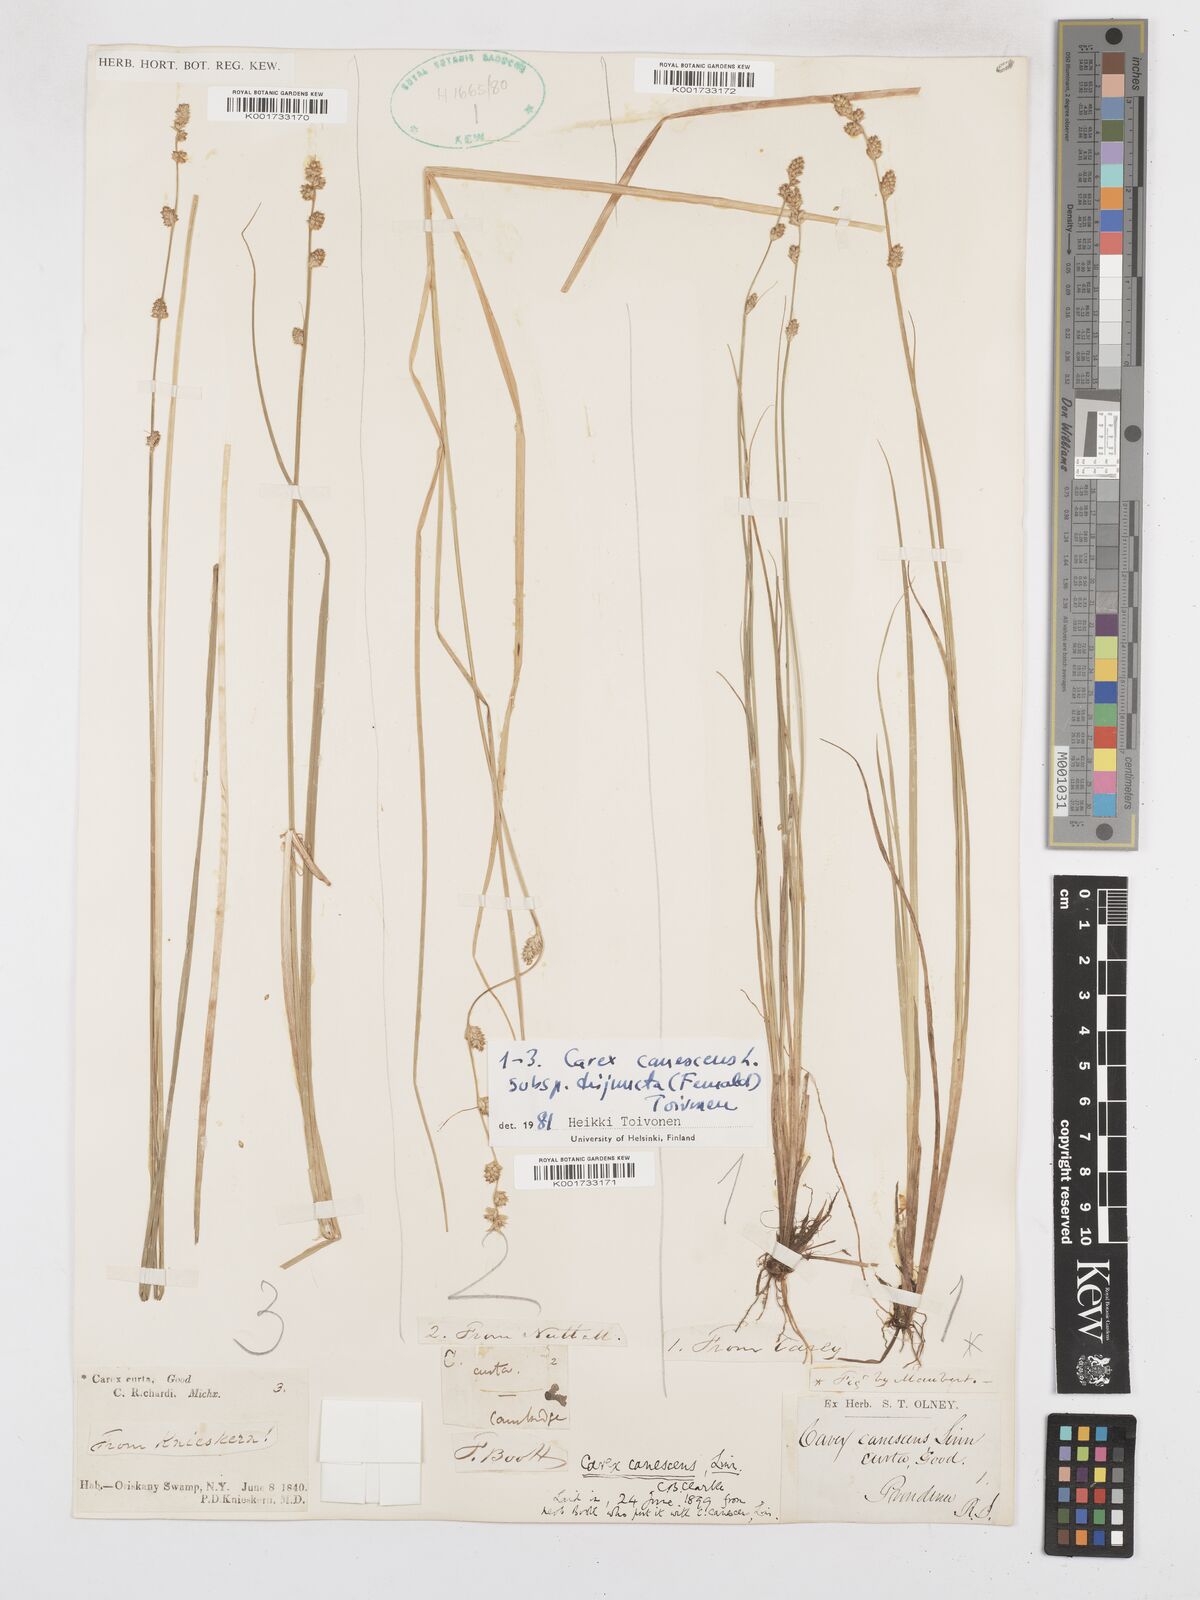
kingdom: Plantae
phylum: Tracheophyta
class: Liliopsida
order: Poales
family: Cyperaceae
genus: Carex
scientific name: Carex curta
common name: White sedge
